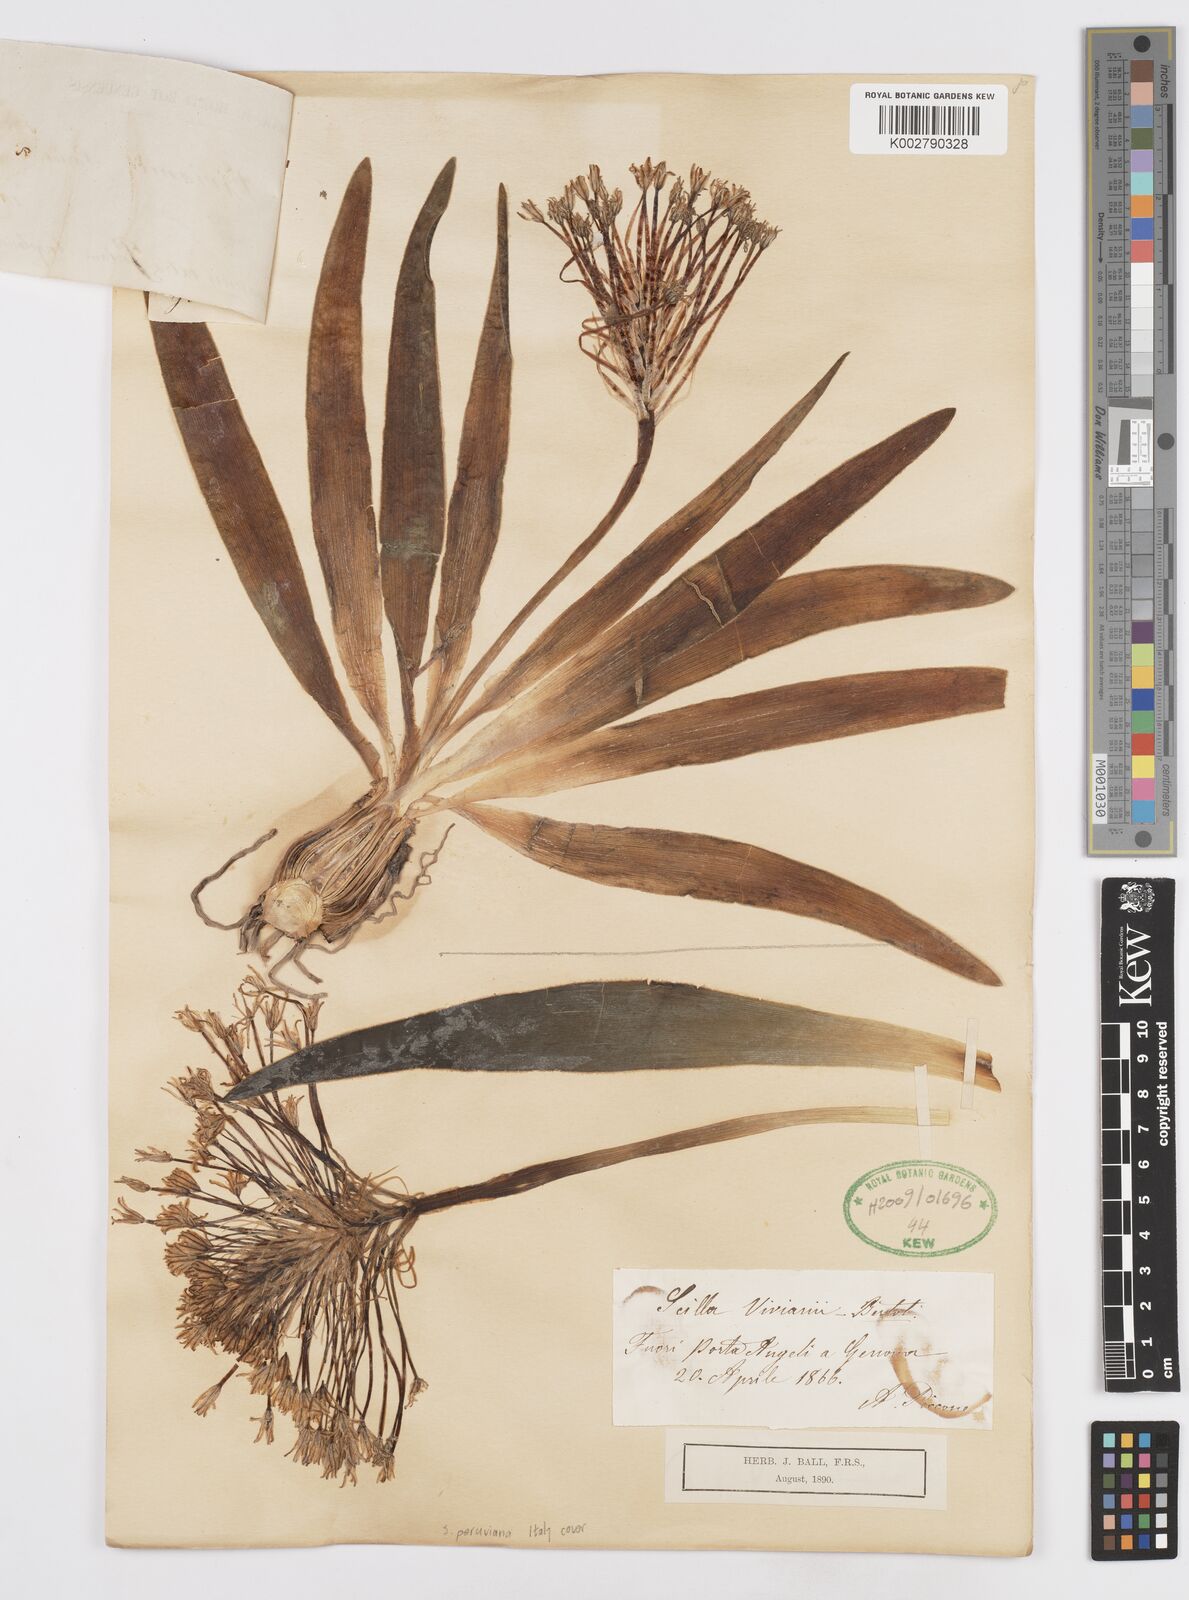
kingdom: Plantae
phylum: Tracheophyta
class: Liliopsida
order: Asparagales
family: Asparagaceae
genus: Scilla
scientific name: Scilla peruviana
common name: Portuguese squill
